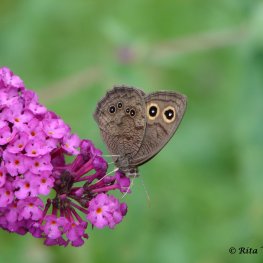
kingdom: Animalia
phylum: Arthropoda
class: Insecta
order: Lepidoptera
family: Nymphalidae
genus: Cercyonis
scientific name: Cercyonis pegala
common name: Common Wood-Nymph
